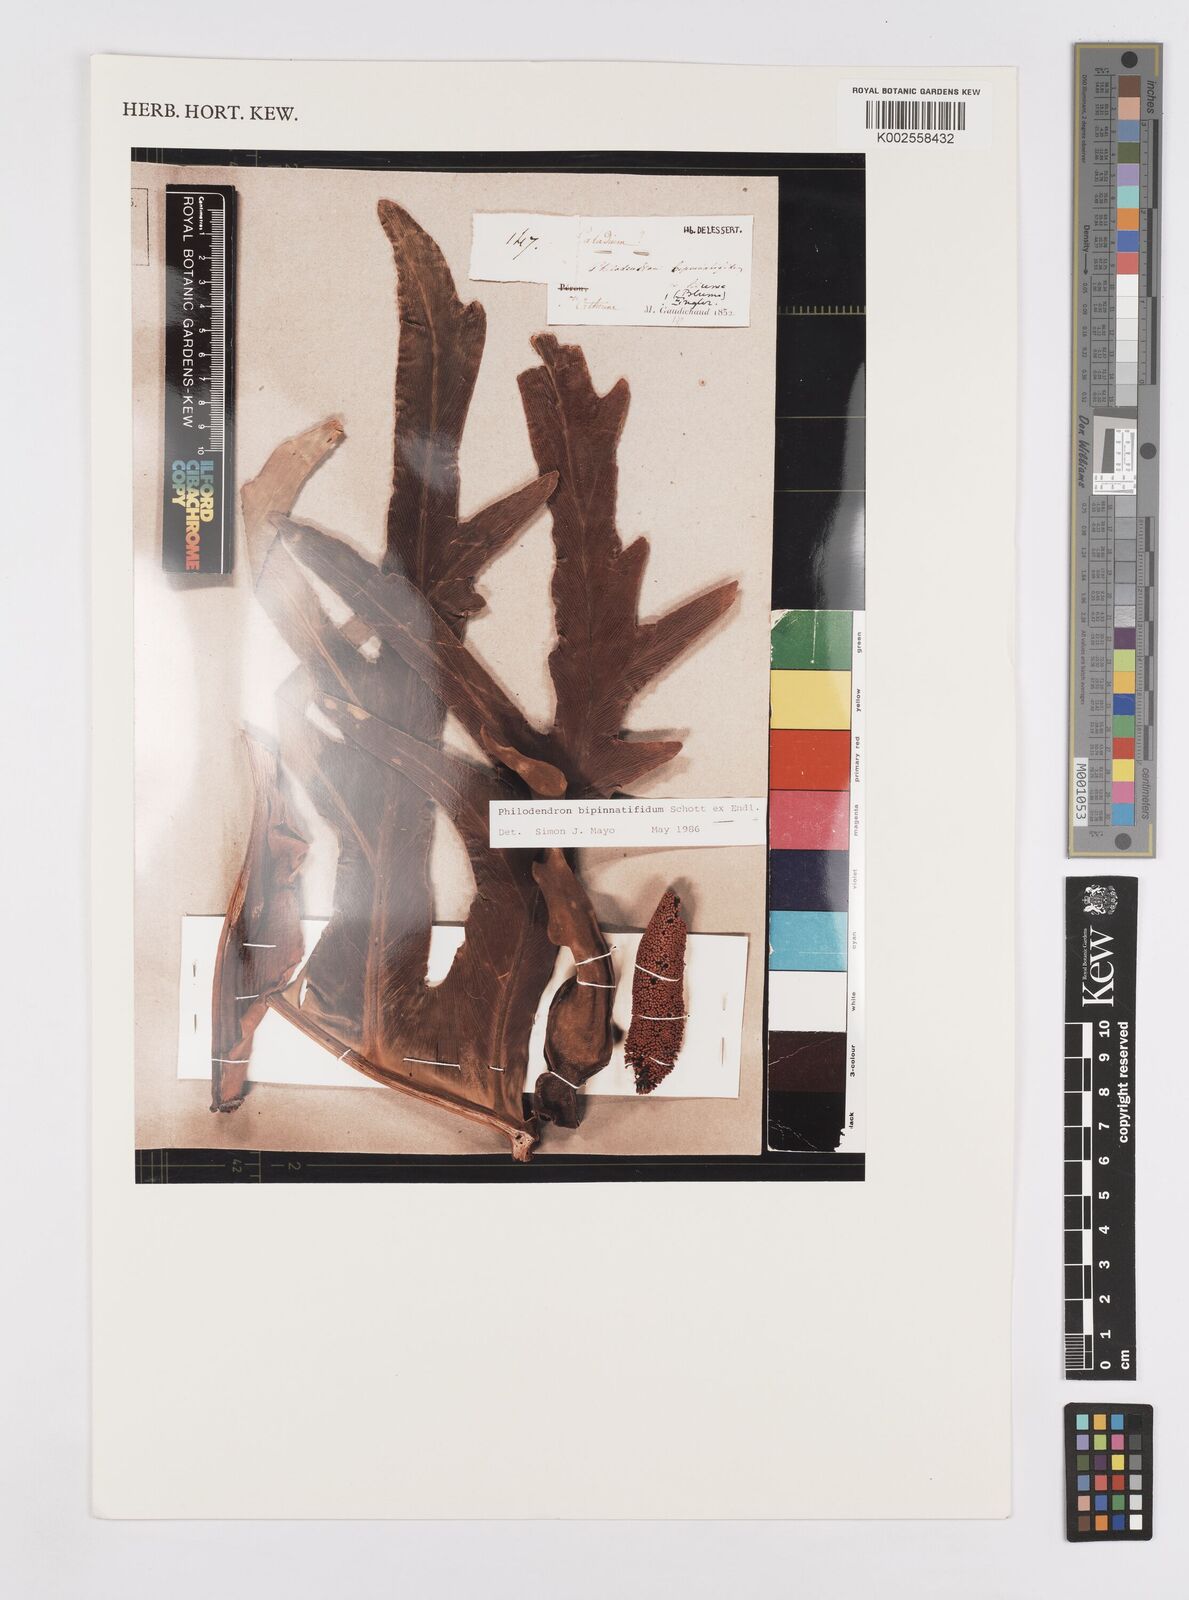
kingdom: Plantae
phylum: Tracheophyta
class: Liliopsida
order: Alismatales
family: Araceae
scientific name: Araceae
